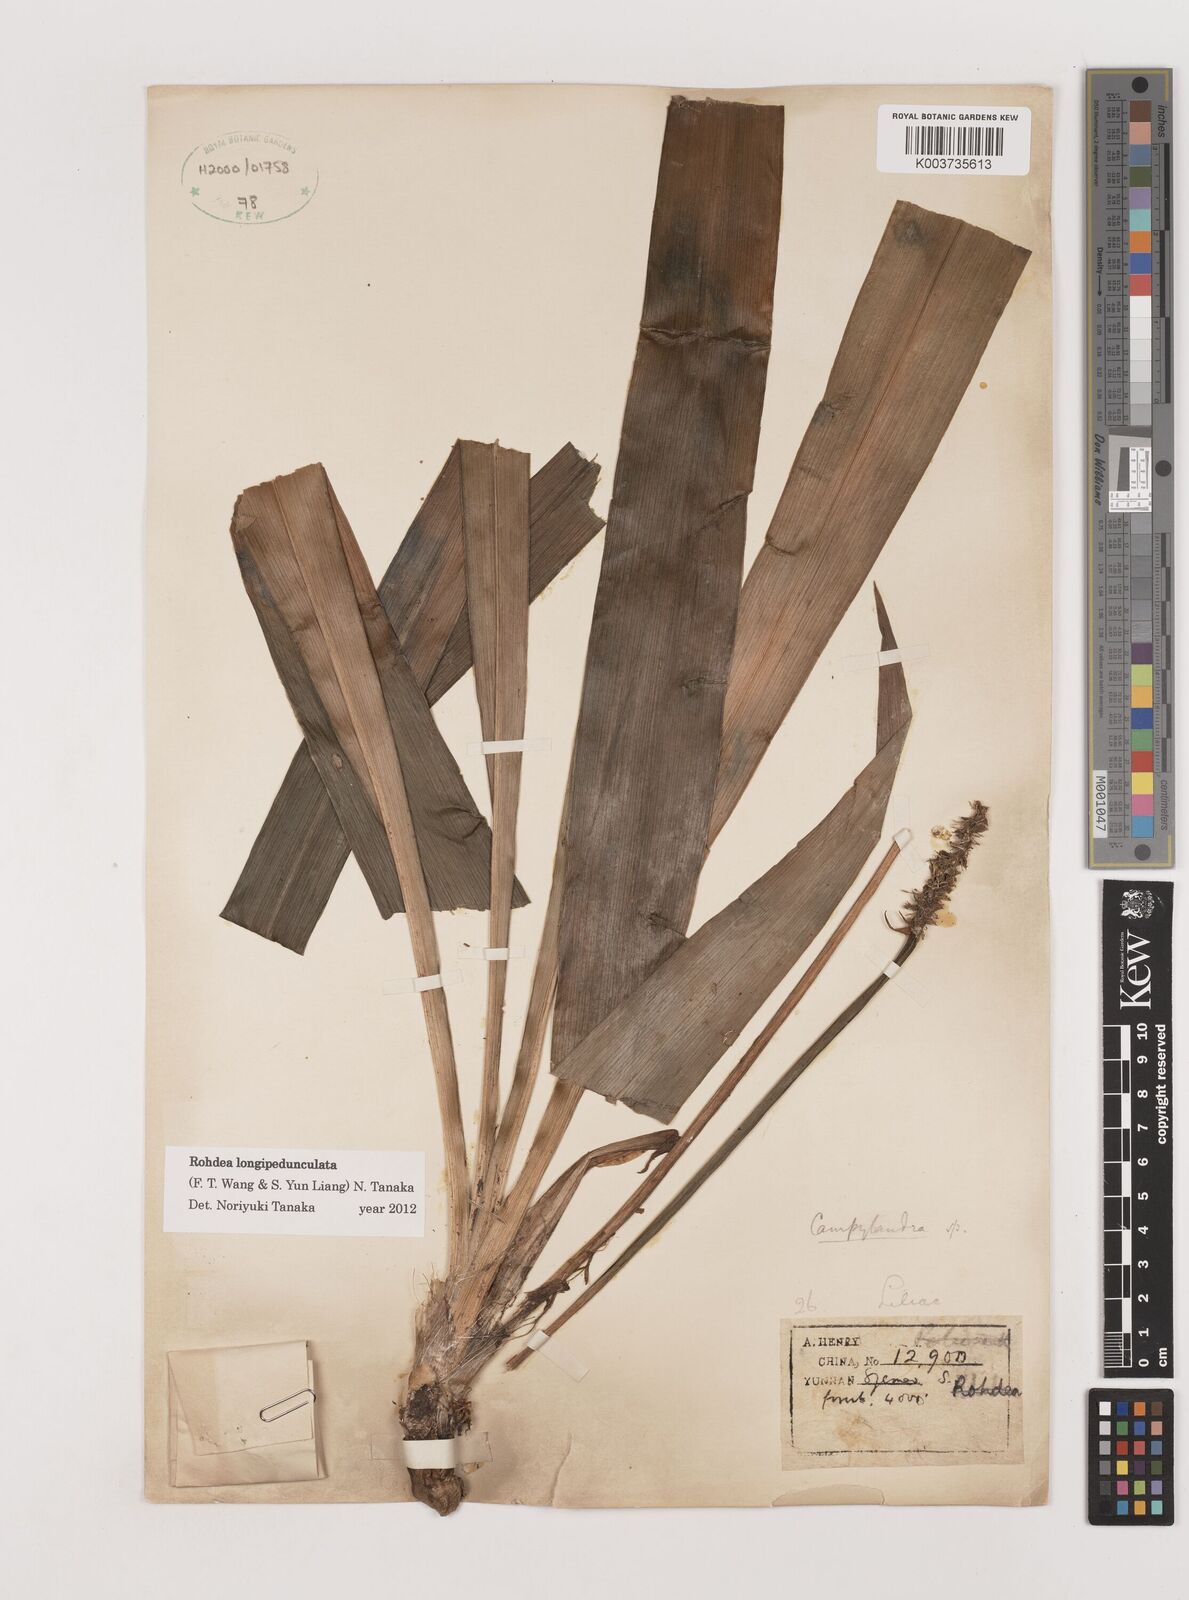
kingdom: Plantae
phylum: Tracheophyta
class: Liliopsida
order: Asparagales
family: Asparagaceae
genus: Rohdea
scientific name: Rohdea longipedunculata
